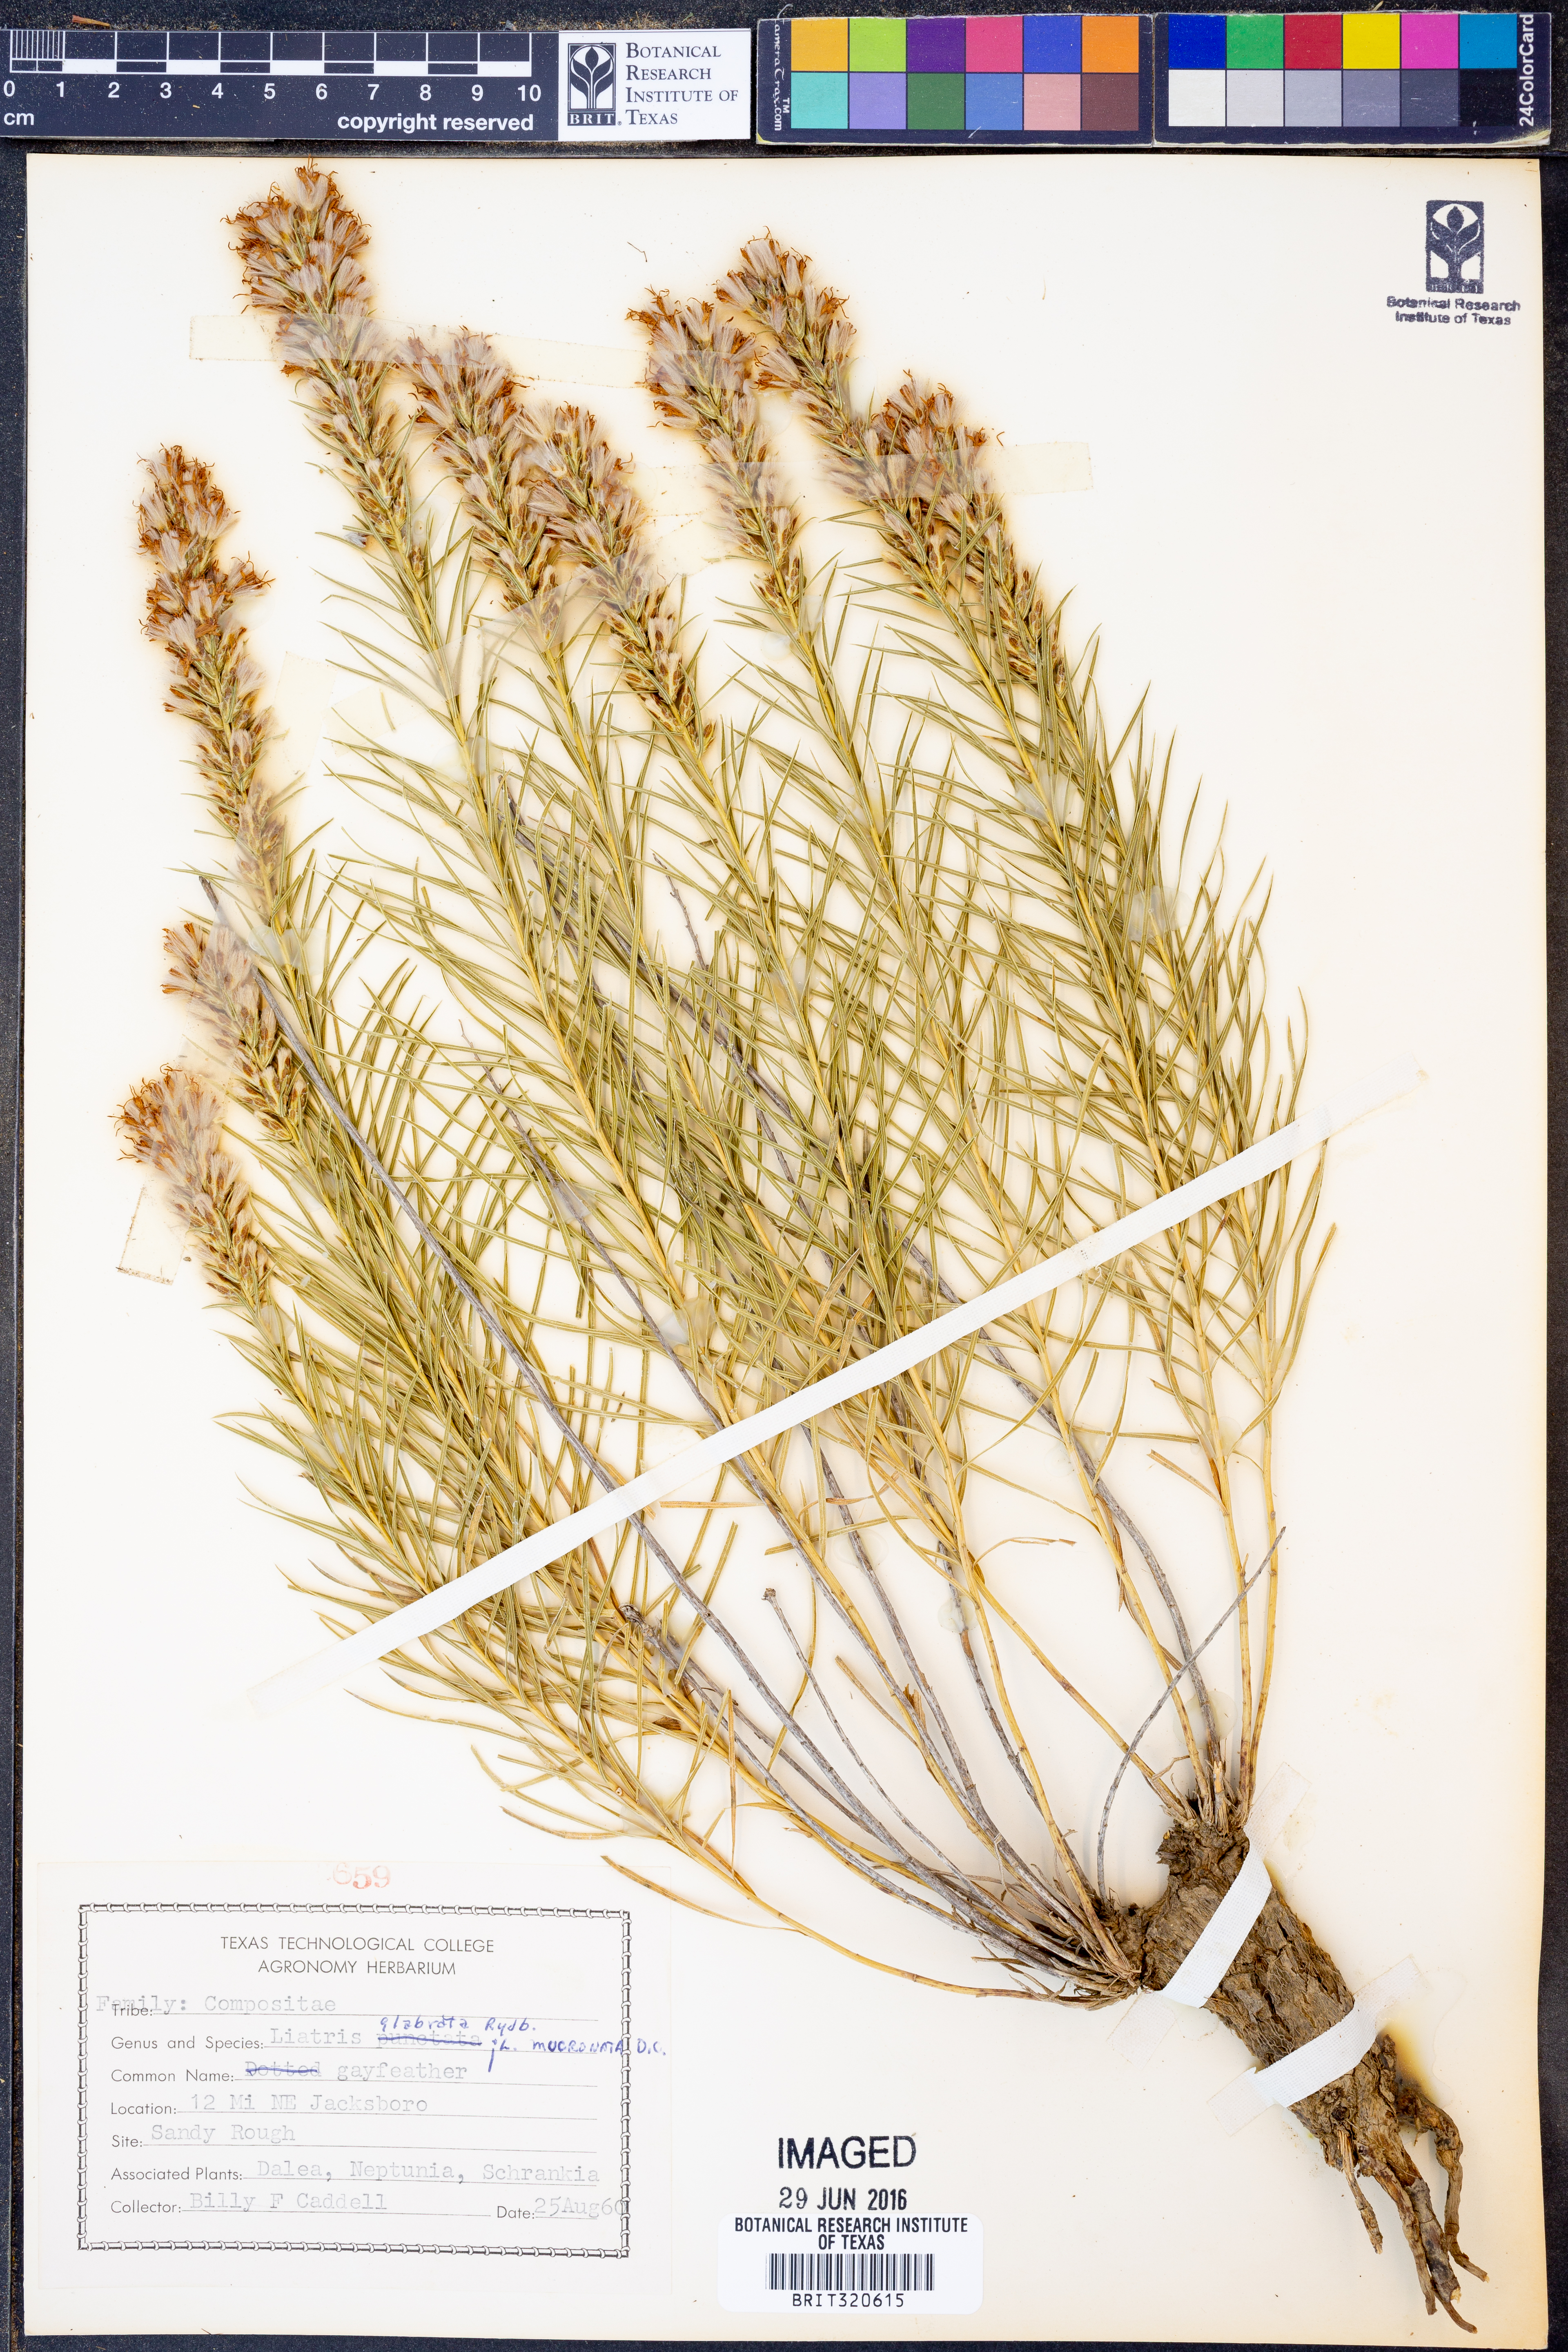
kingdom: Plantae
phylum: Tracheophyta
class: Magnoliopsida
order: Asterales
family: Asteraceae
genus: Liatris
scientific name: Liatris
